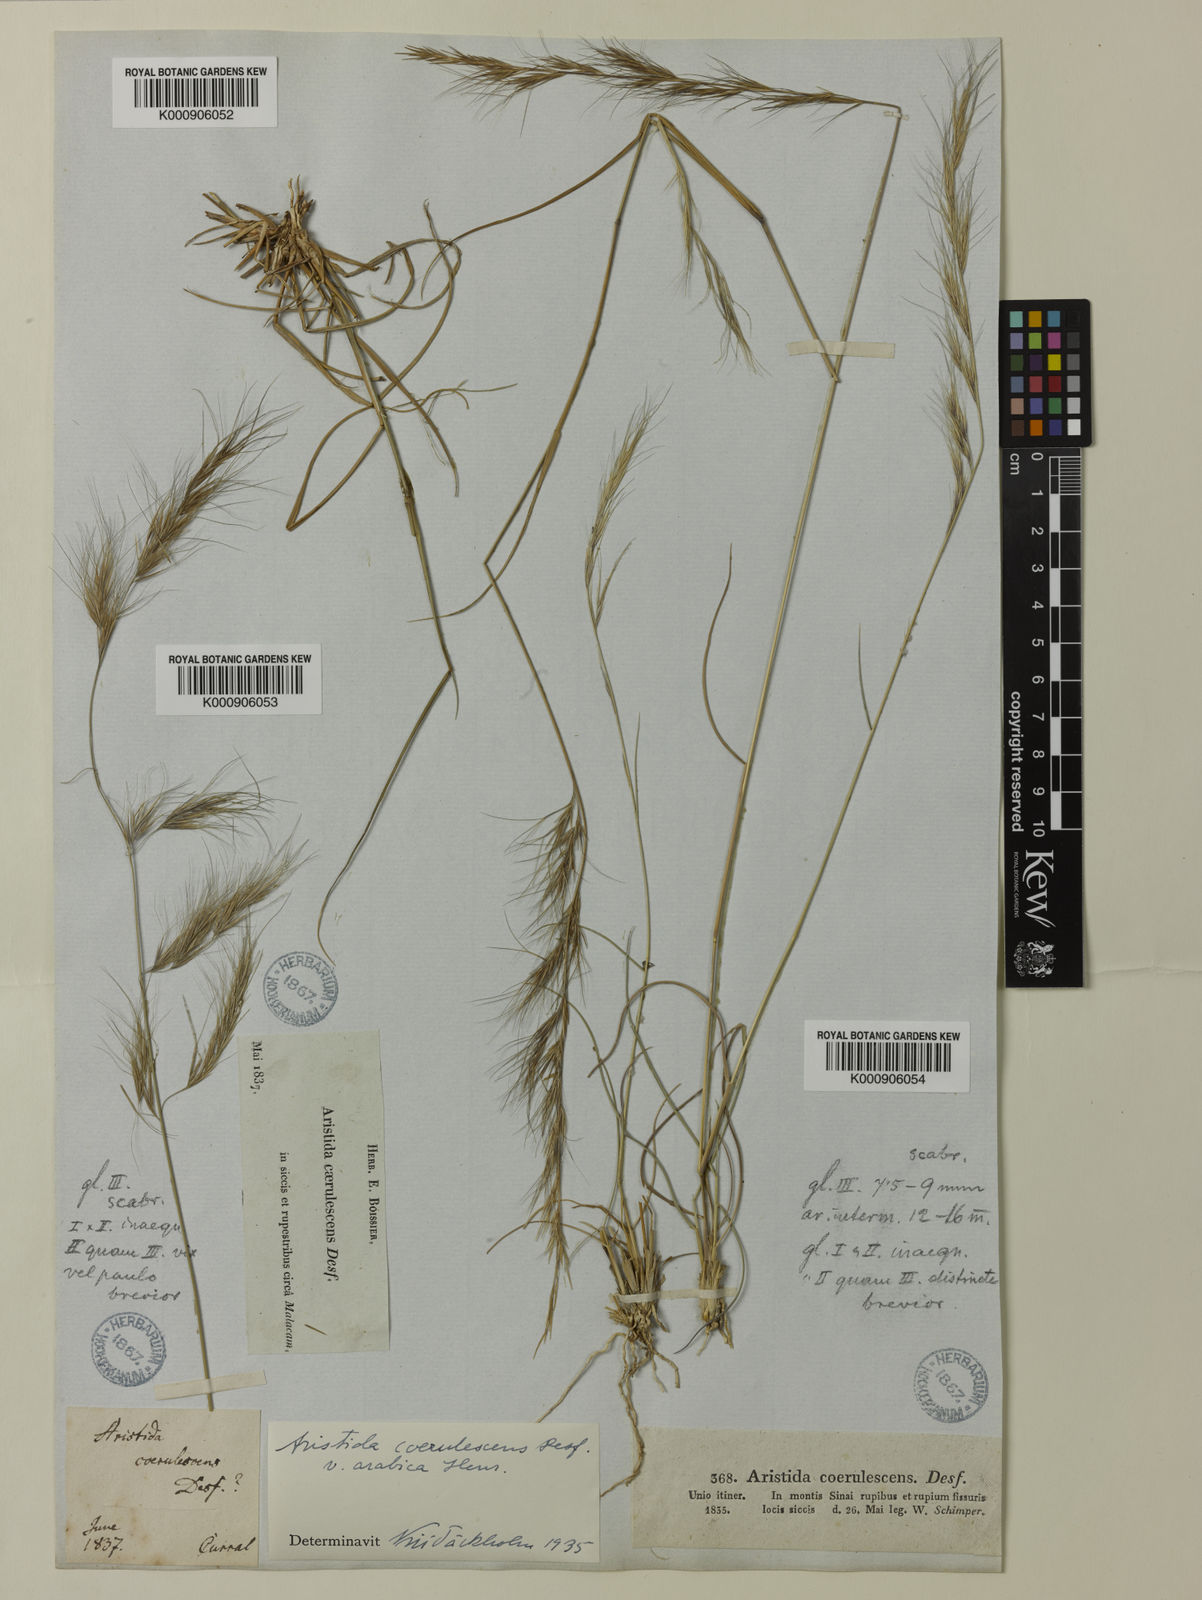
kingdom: Plantae
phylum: Tracheophyta
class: Liliopsida
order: Poales
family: Poaceae
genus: Aristida
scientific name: Aristida adscensionis
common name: Sixweeks threeawn
